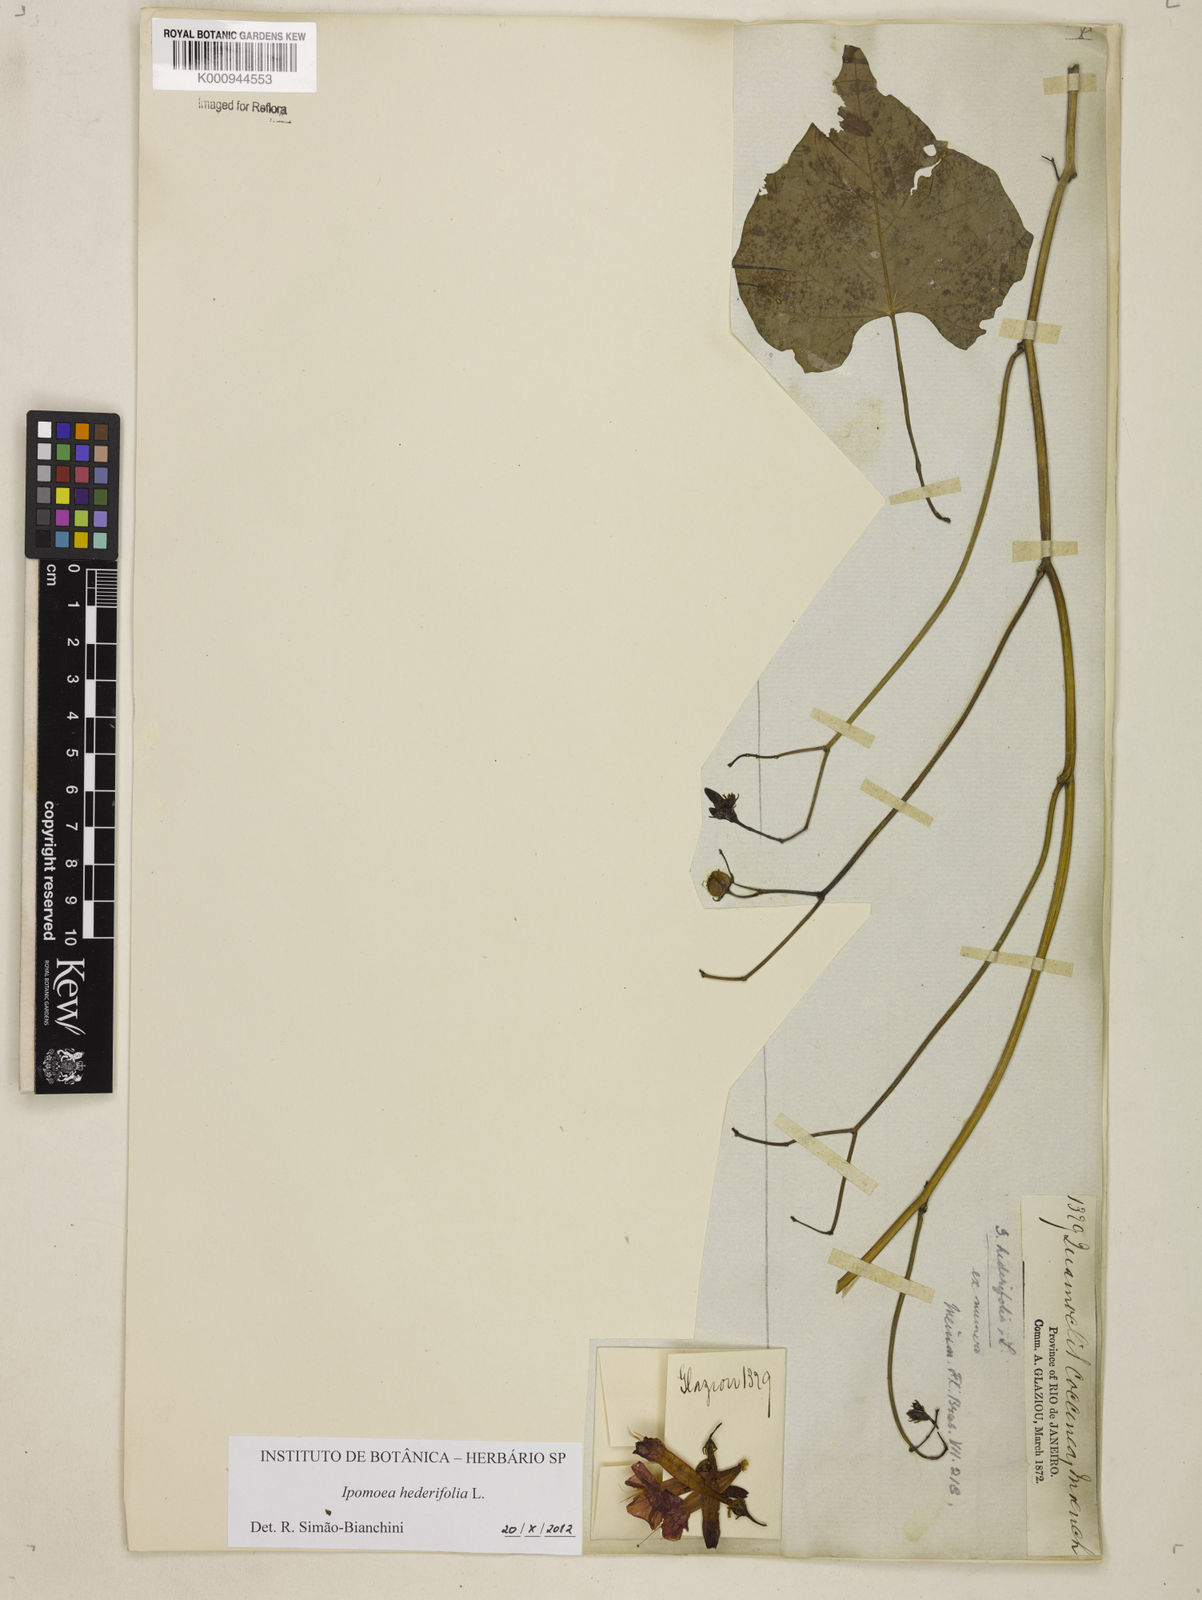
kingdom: Plantae
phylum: Tracheophyta
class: Magnoliopsida
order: Solanales
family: Convolvulaceae
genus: Ipomoea
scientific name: Ipomoea hederifolia
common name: Ivy-leaf morning-glory
